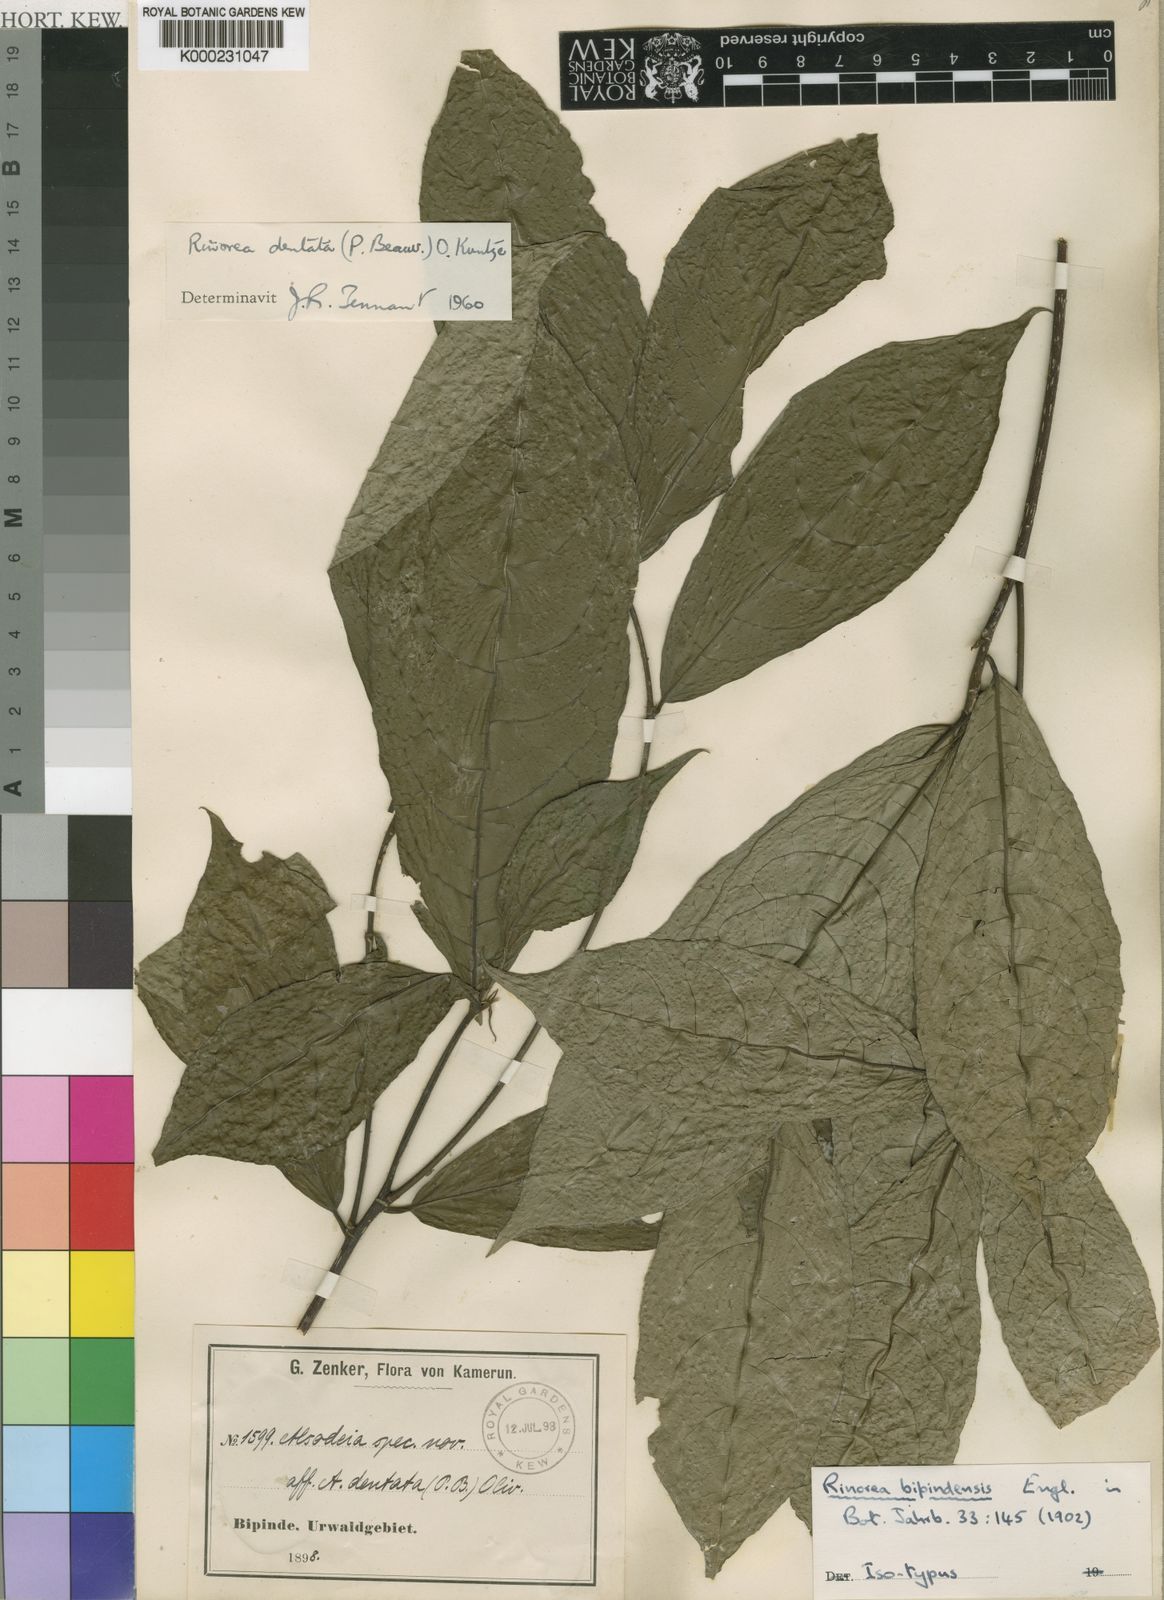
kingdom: Plantae
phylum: Tracheophyta
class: Magnoliopsida
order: Malpighiales
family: Violaceae
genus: Rinorea
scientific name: Rinorea dentata
